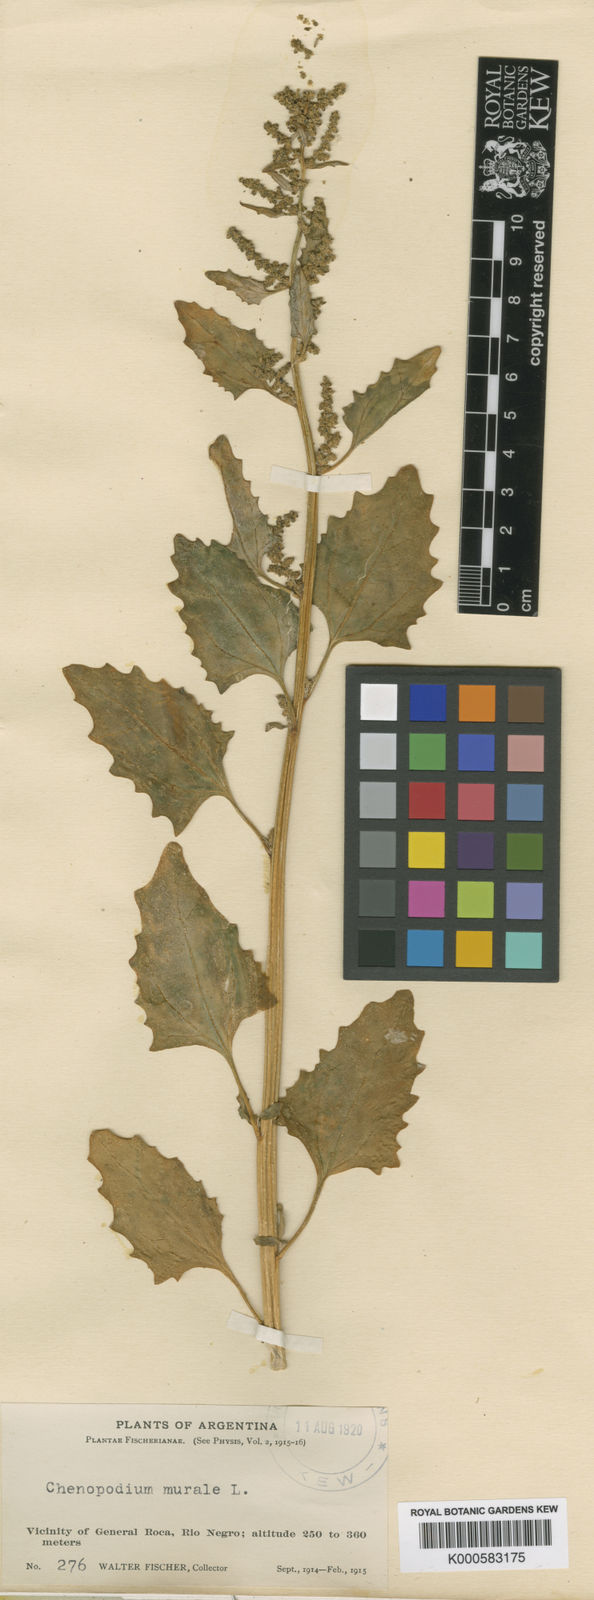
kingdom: Plantae
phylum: Tracheophyta
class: Magnoliopsida
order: Caryophyllales
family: Amaranthaceae
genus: Oxybasis
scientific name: Oxybasis macrosperma
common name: Large-seed goosefoot
